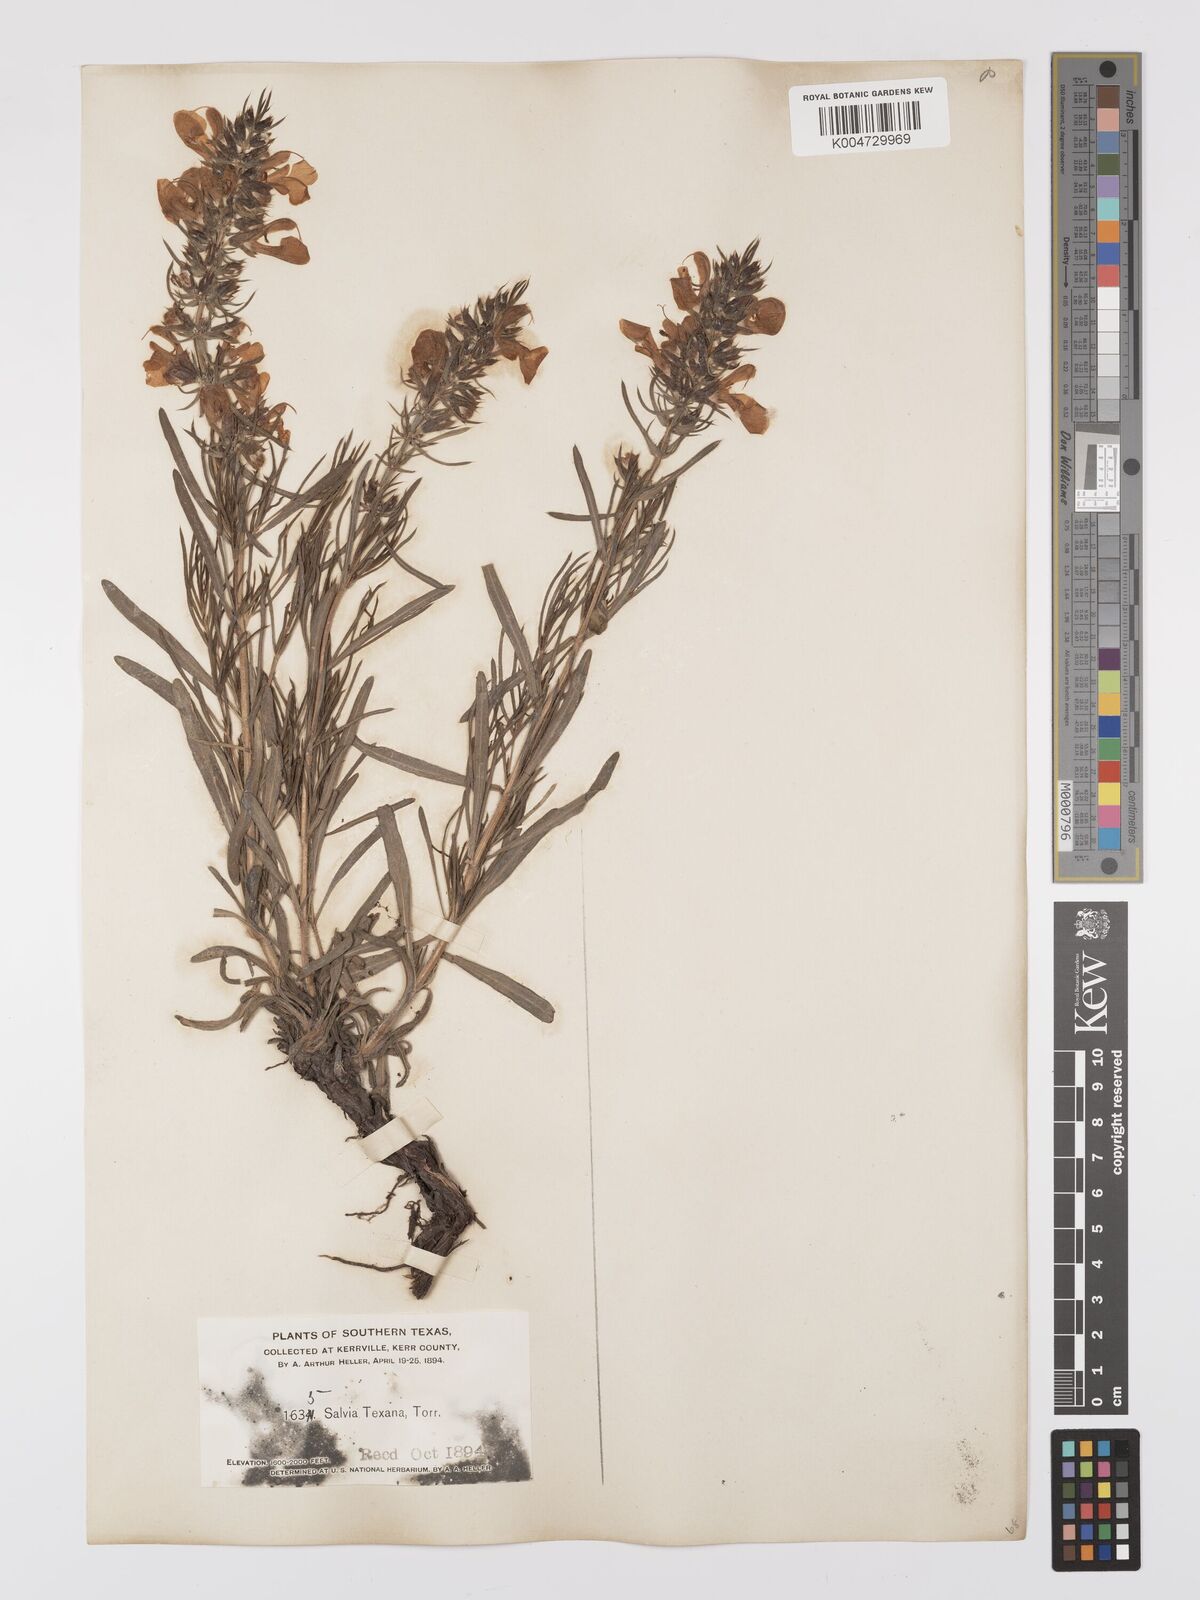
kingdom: Plantae
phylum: Tracheophyta
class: Magnoliopsida
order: Lamiales
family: Lamiaceae
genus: Salvia
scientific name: Salvia texana
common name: Texas sage
